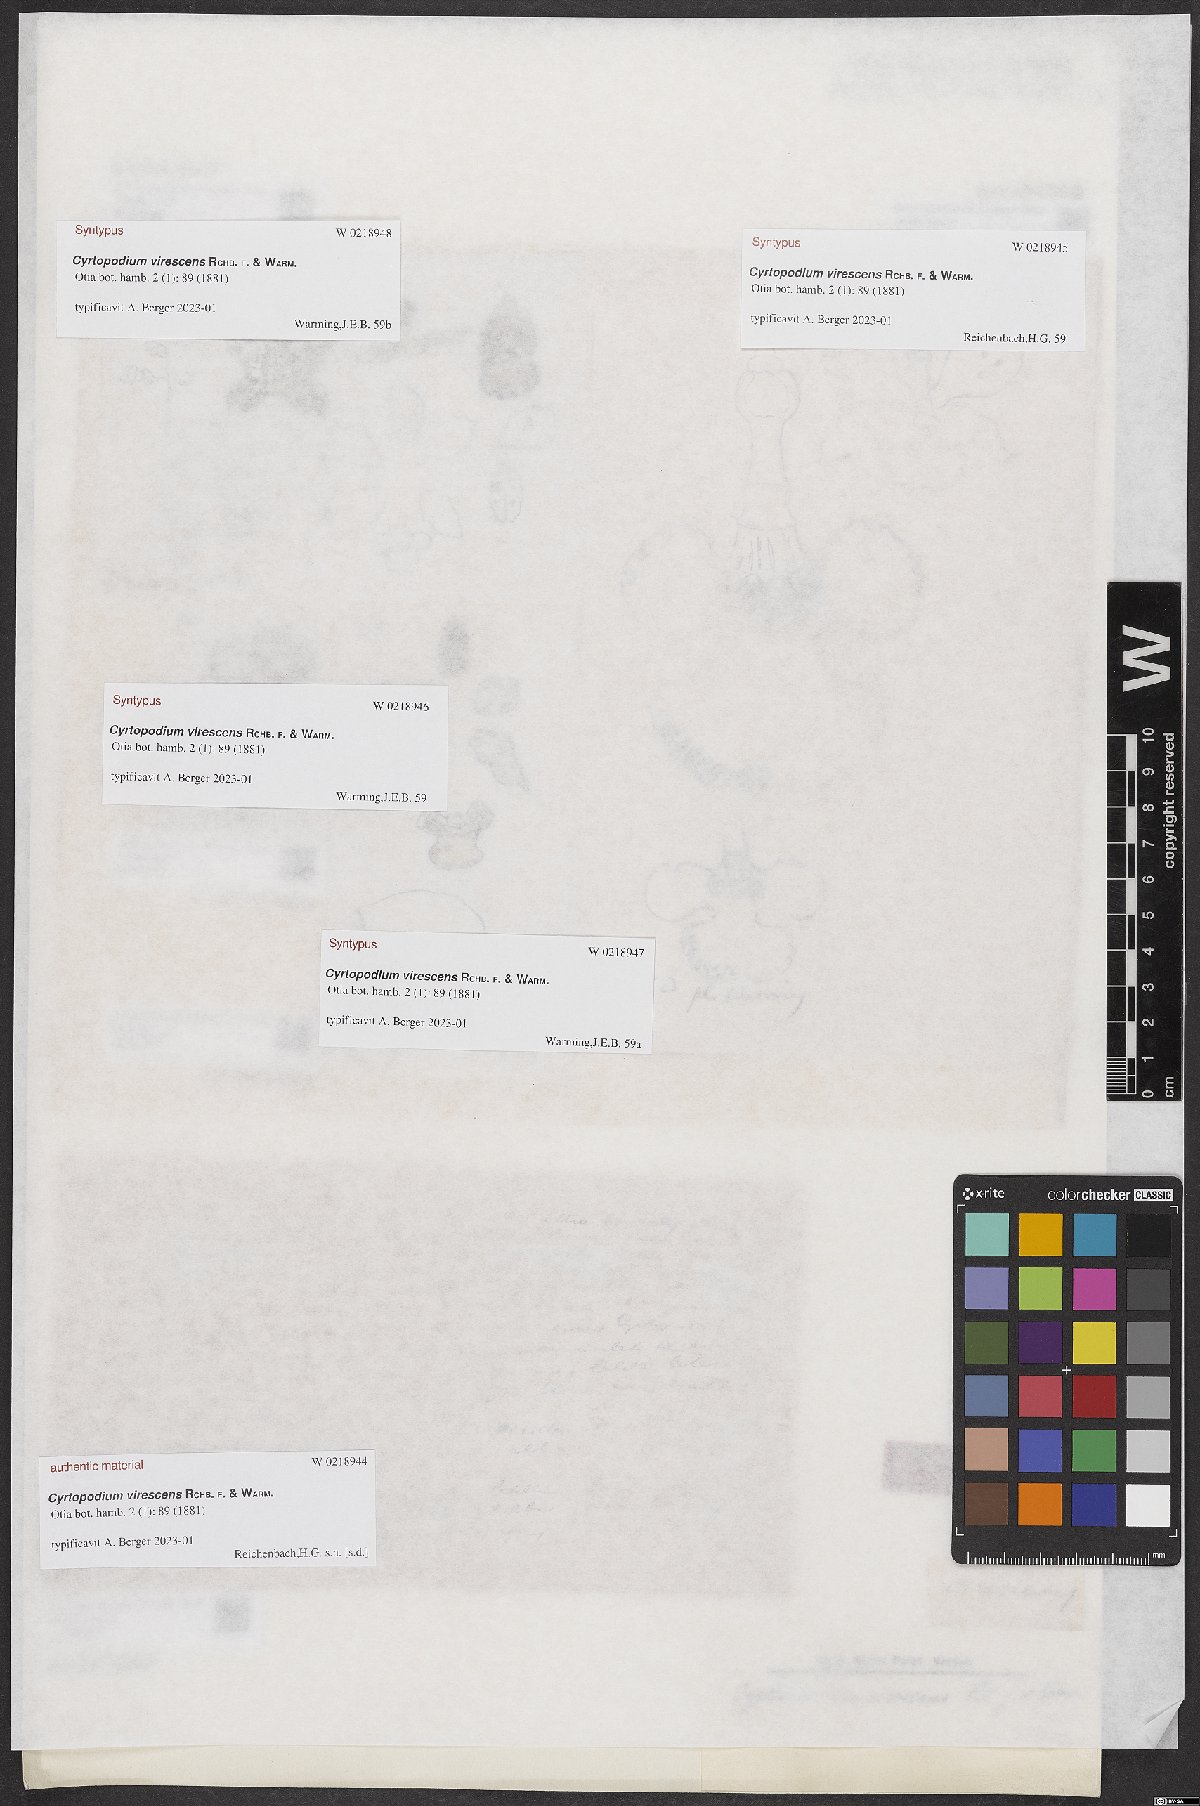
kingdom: Plantae
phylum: Tracheophyta
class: Liliopsida
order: Asparagales
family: Orchidaceae
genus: Cyrtopodium
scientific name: Cyrtopodium virescens
